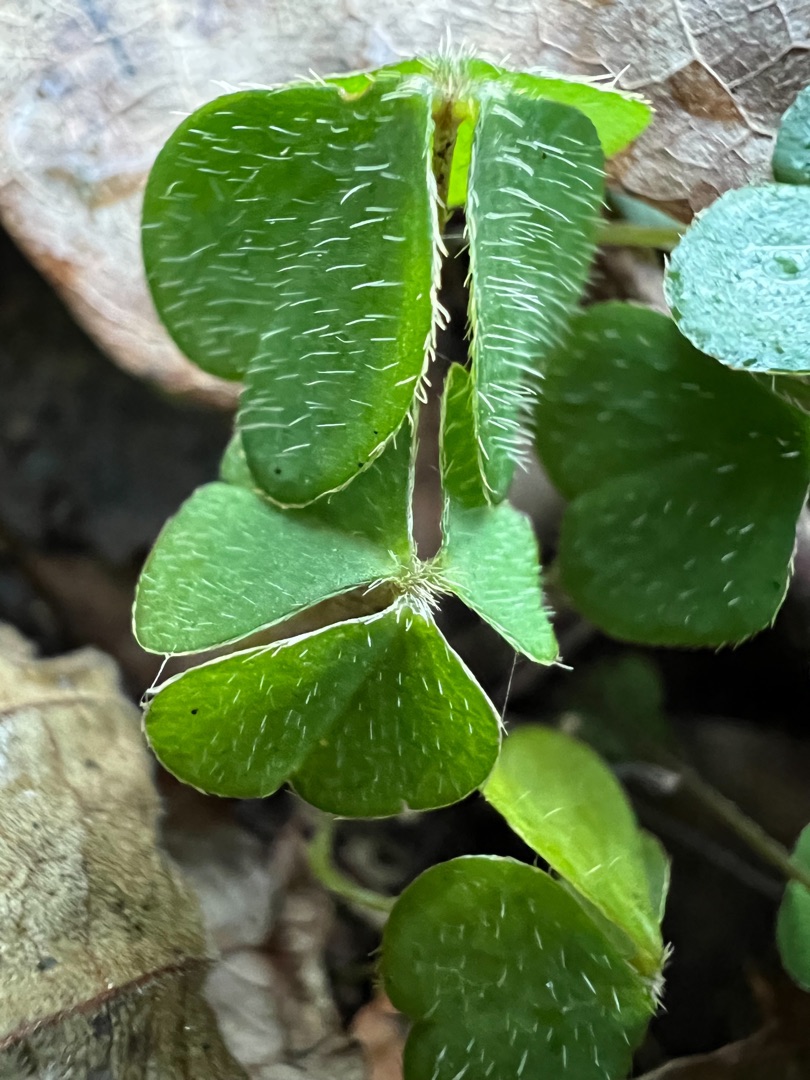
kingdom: Plantae
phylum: Tracheophyta
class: Magnoliopsida
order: Oxalidales
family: Oxalidaceae
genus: Oxalis
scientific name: Oxalis acetosella
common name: Skovsyre
